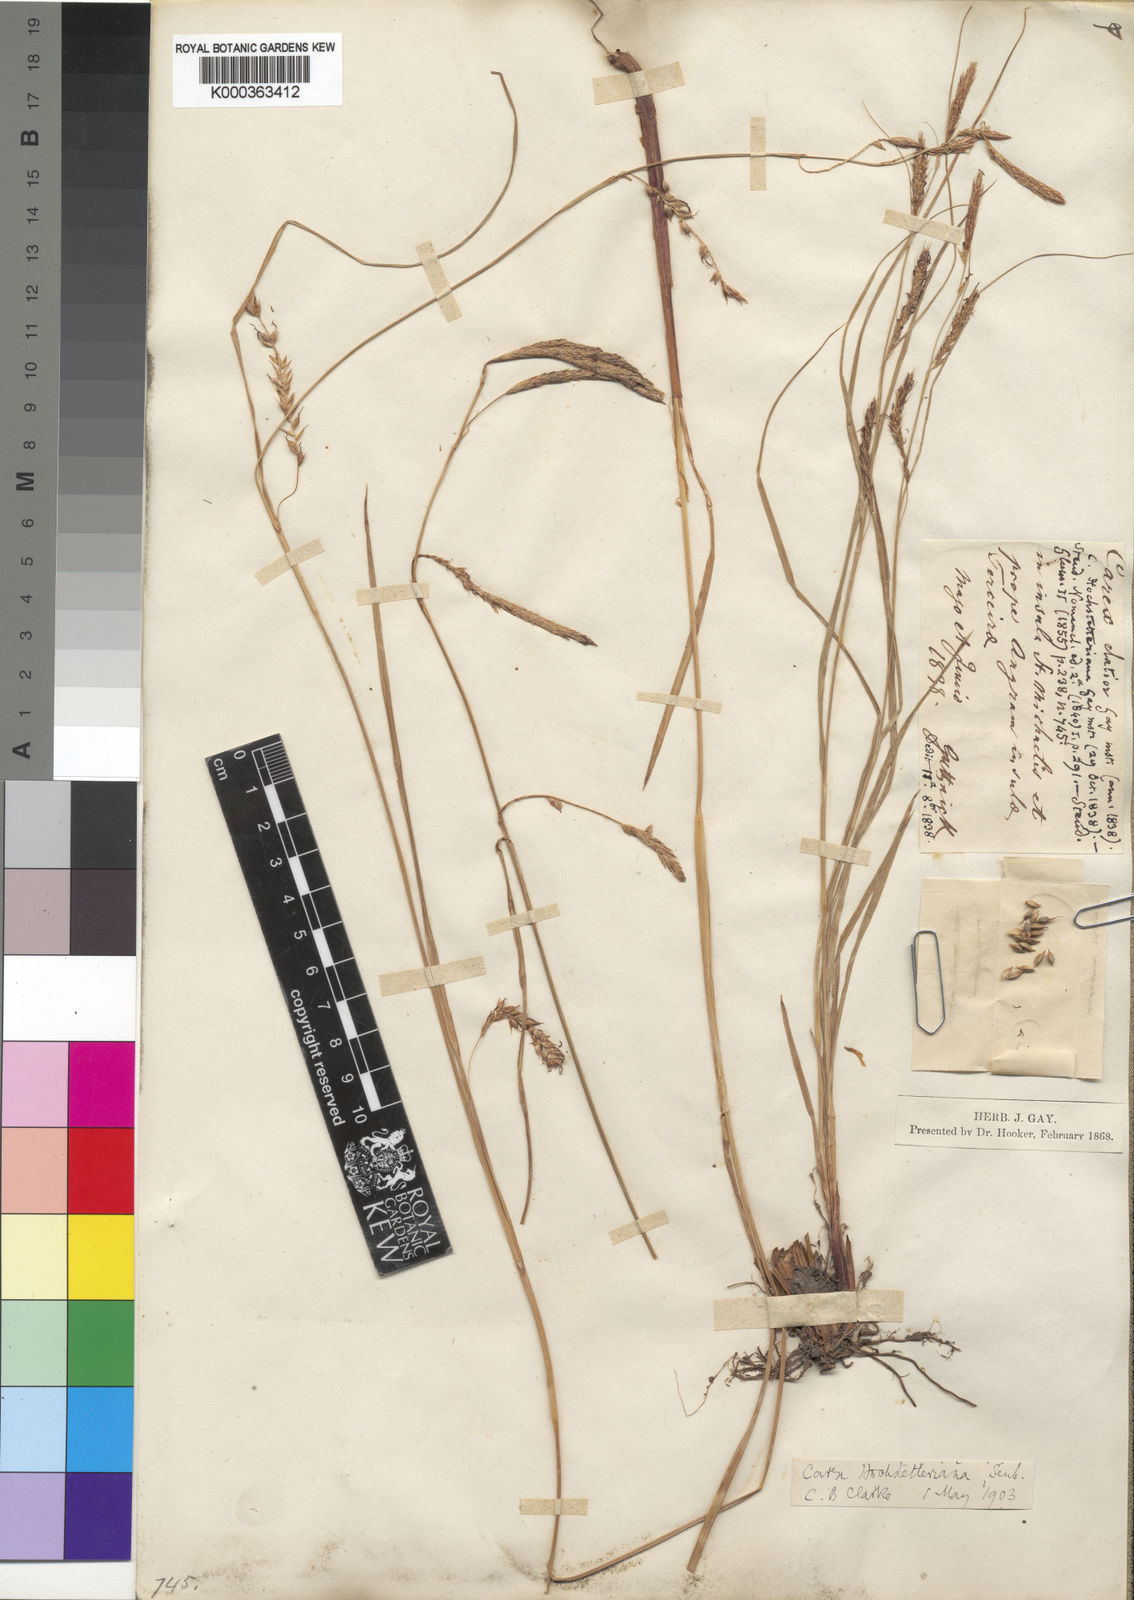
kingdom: Plantae
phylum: Tracheophyta
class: Liliopsida
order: Poales
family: Cyperaceae
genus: Carex
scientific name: Carex lowei
